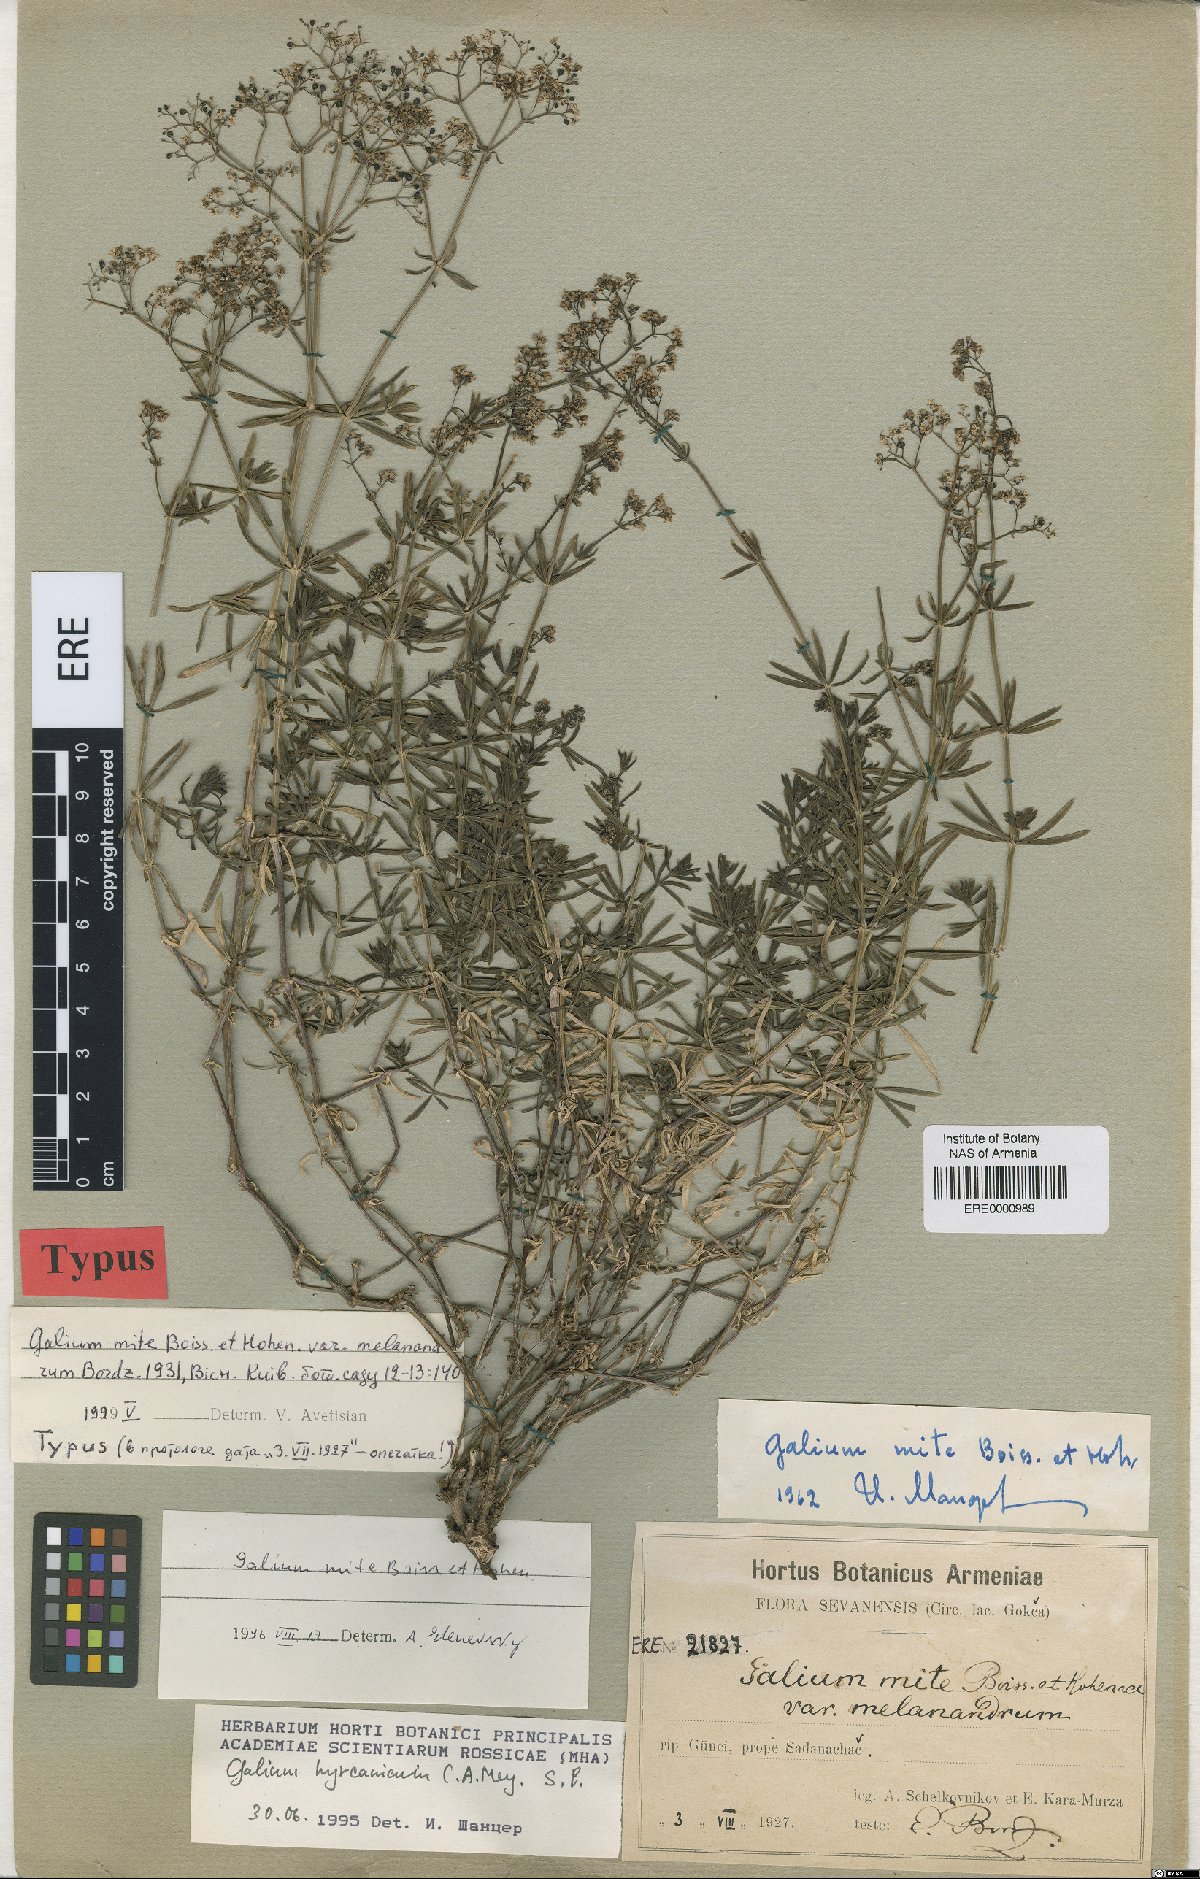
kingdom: Plantae
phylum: Tracheophyta
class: Magnoliopsida
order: Gentianales
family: Rubiaceae
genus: Galium
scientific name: Galium mite
